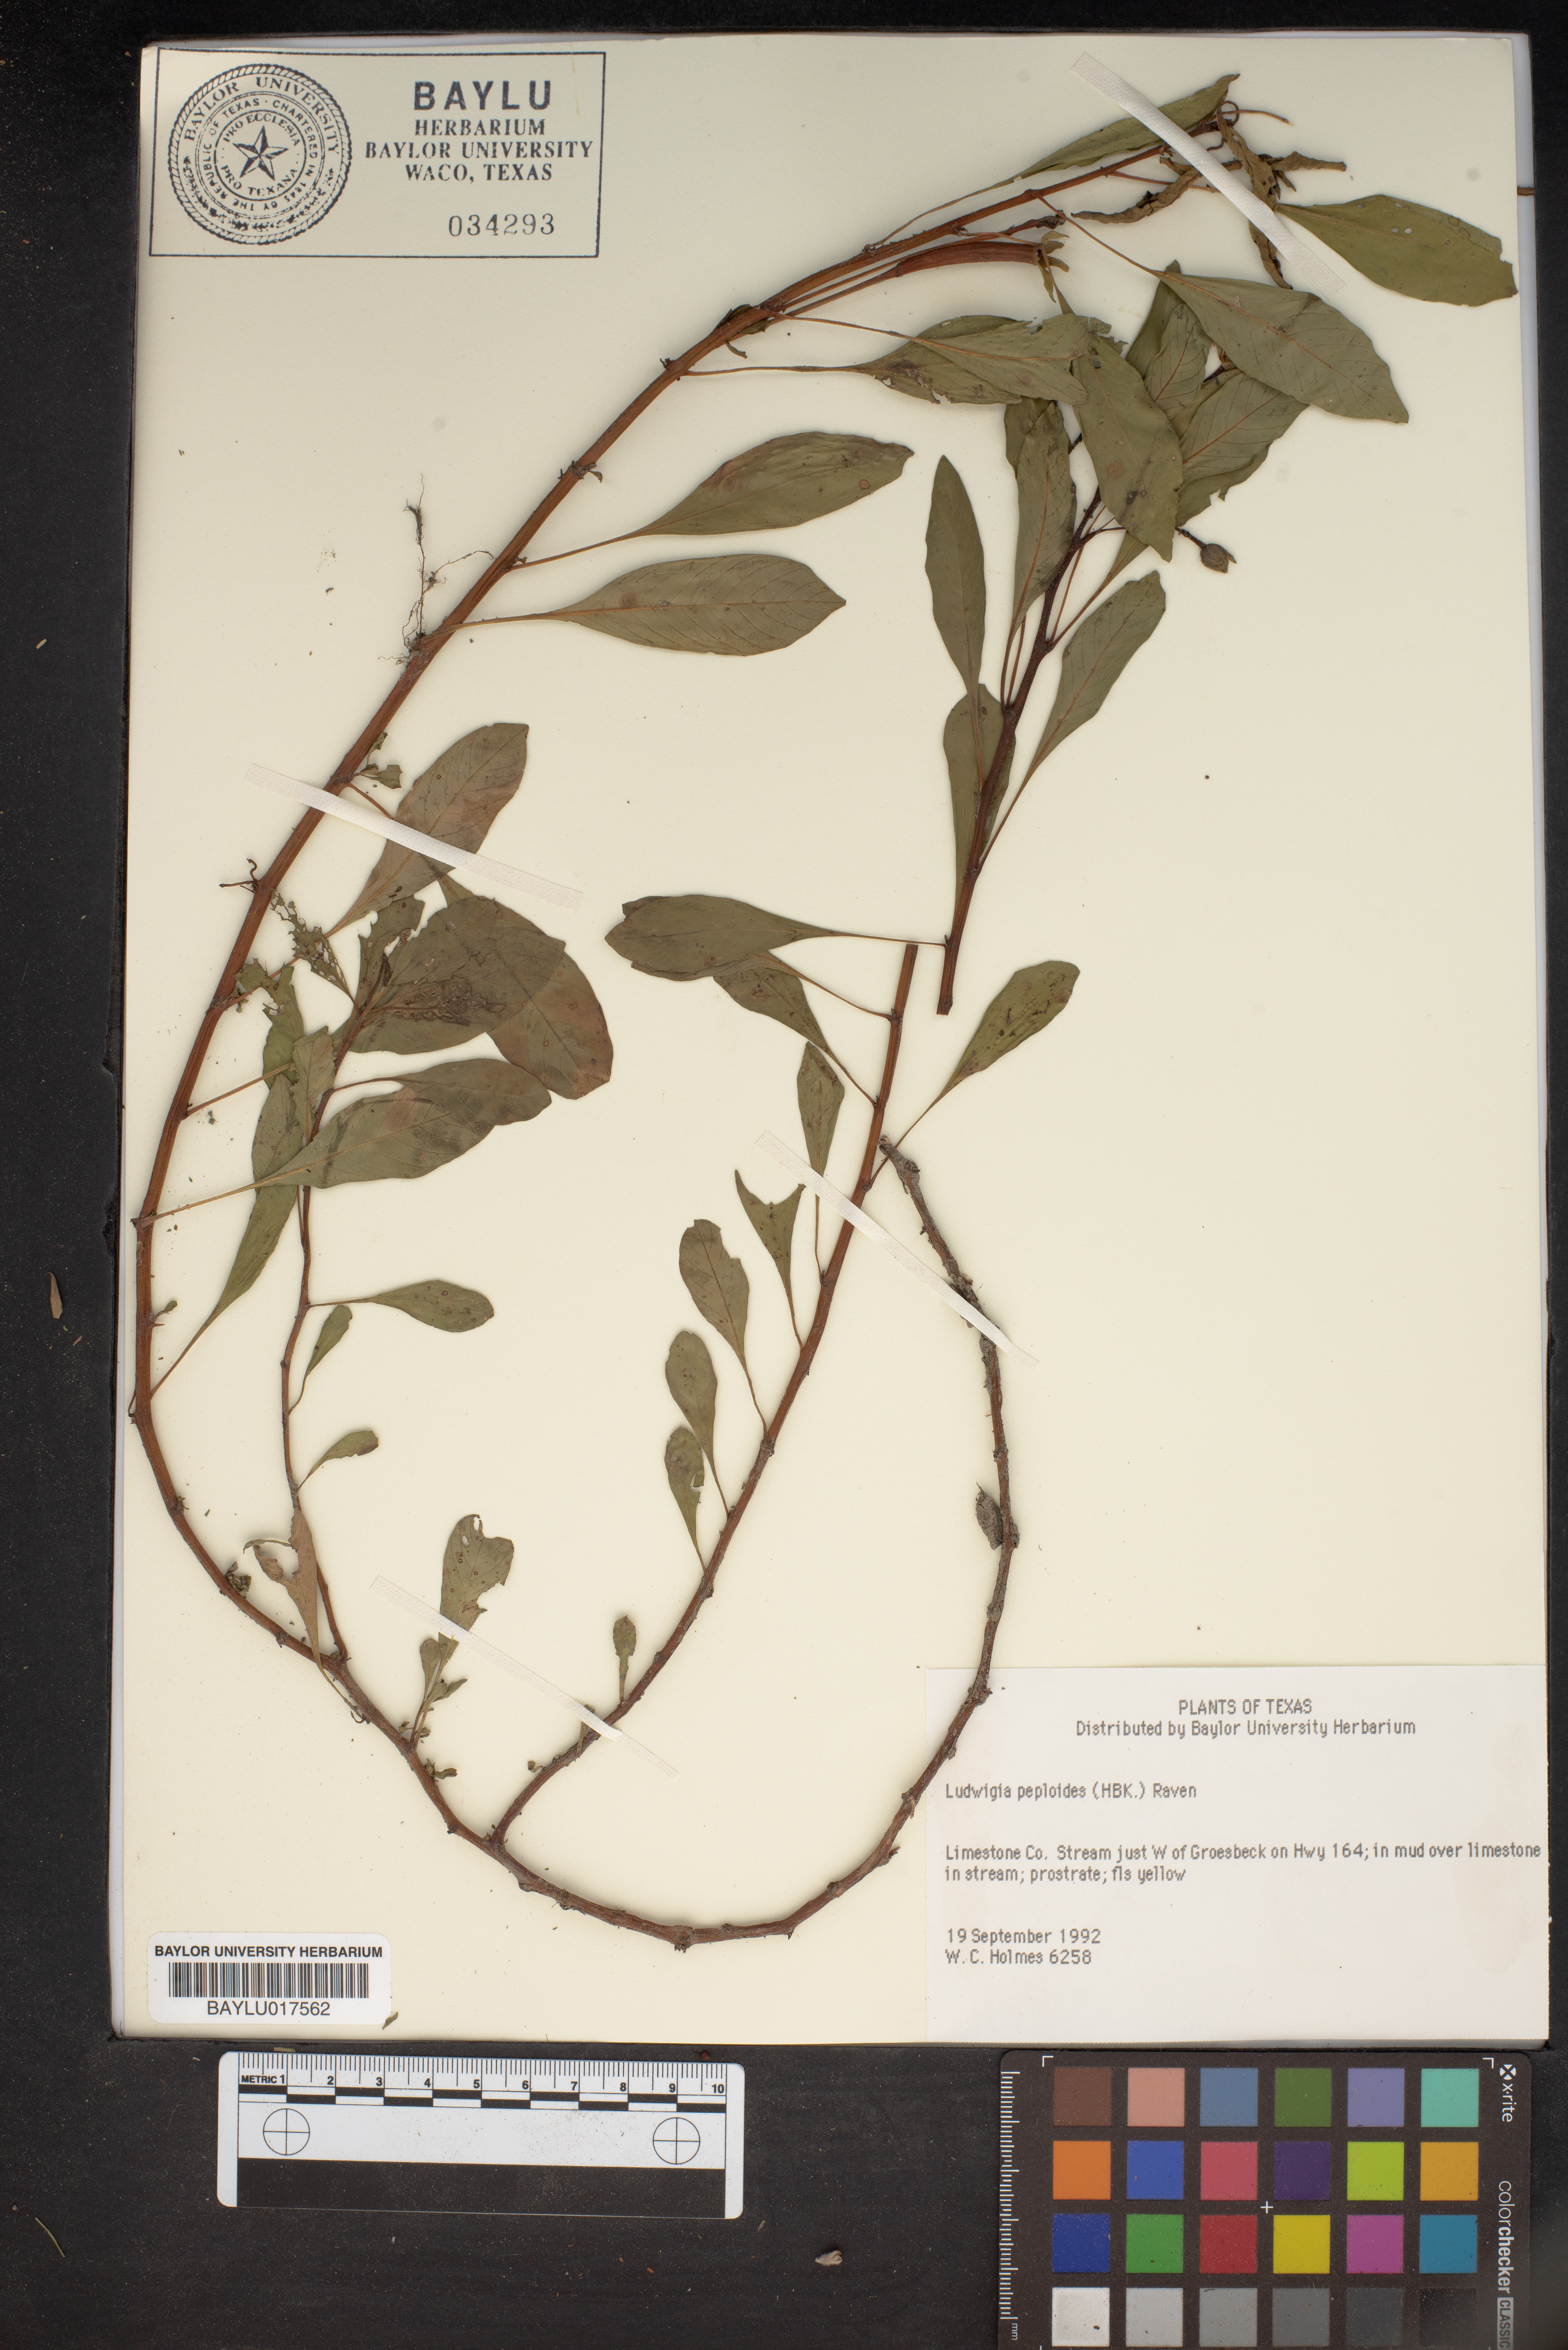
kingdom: Plantae
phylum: Tracheophyta
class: Magnoliopsida
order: Myrtales
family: Onagraceae
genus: Ludwigia
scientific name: Ludwigia peploides
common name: Floating primrose-willow
